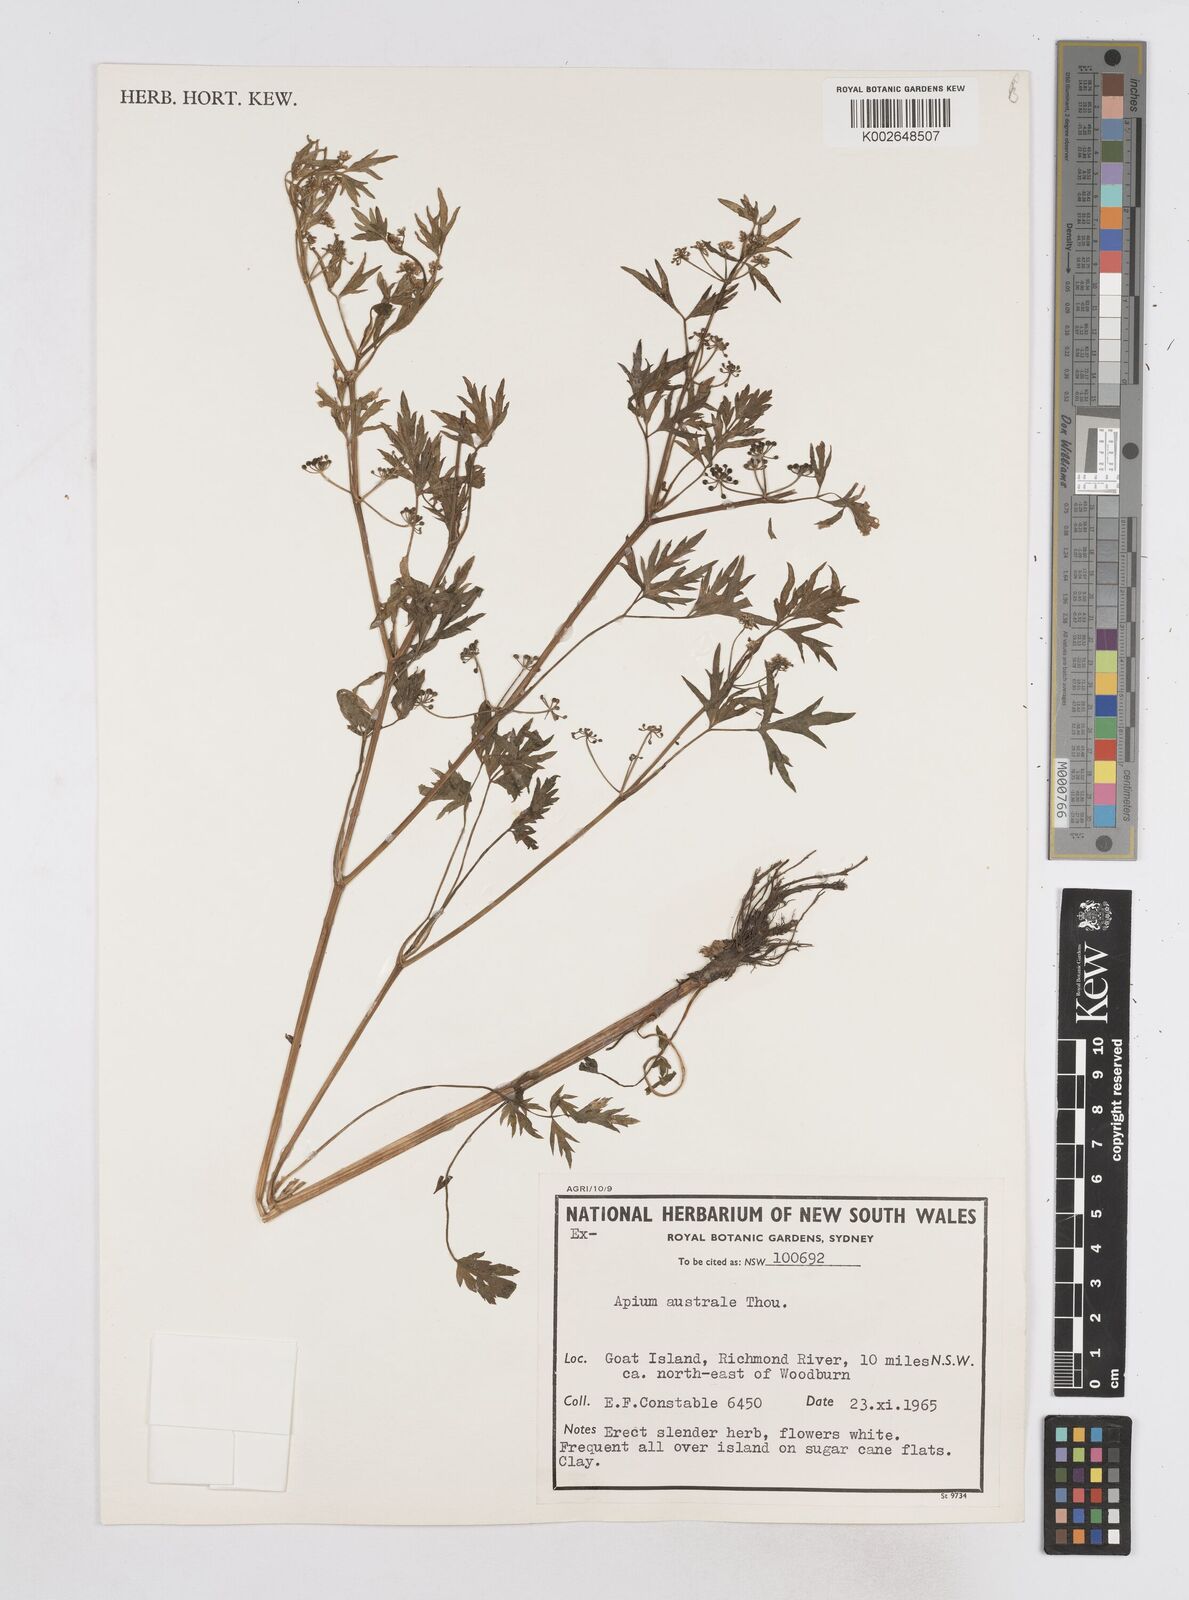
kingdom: Plantae
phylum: Tracheophyta
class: Magnoliopsida
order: Apiales
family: Apiaceae
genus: Apium
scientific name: Apium prostratum
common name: Prostrate marshwort
